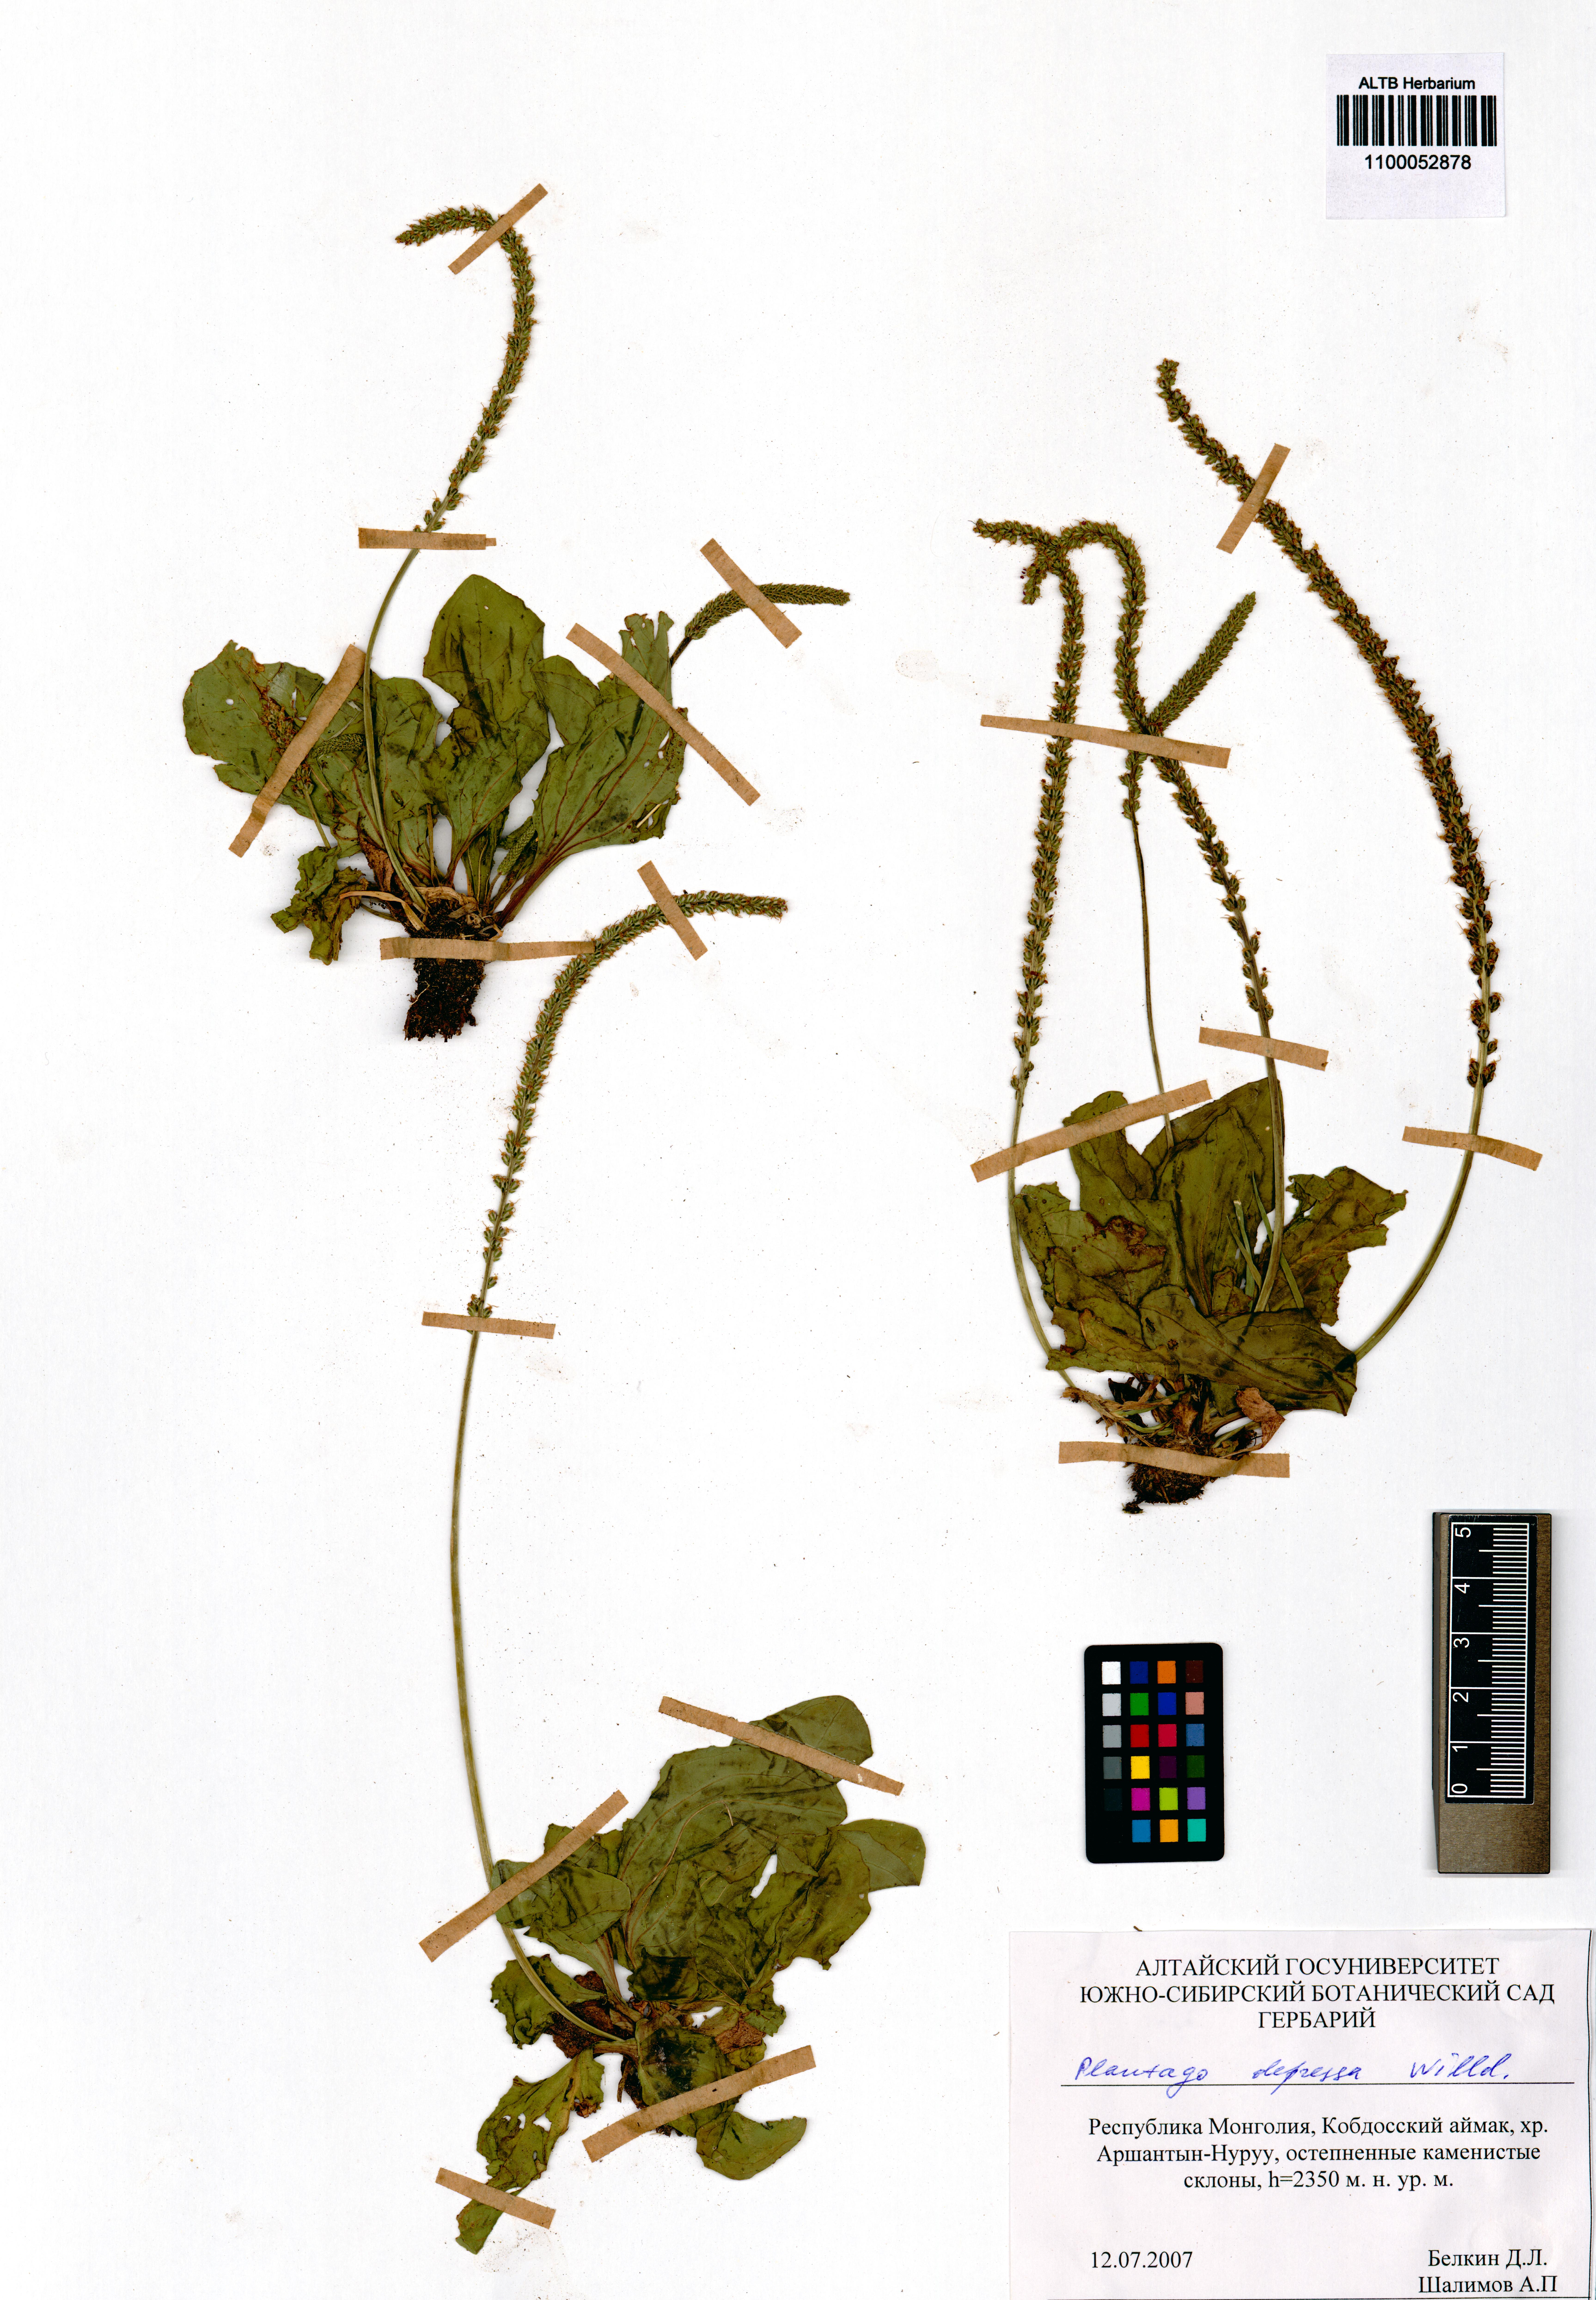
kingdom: Plantae
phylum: Tracheophyta
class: Magnoliopsida
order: Lamiales
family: Plantaginaceae
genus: Plantago
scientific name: Plantago depressa
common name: Depressed plantain
